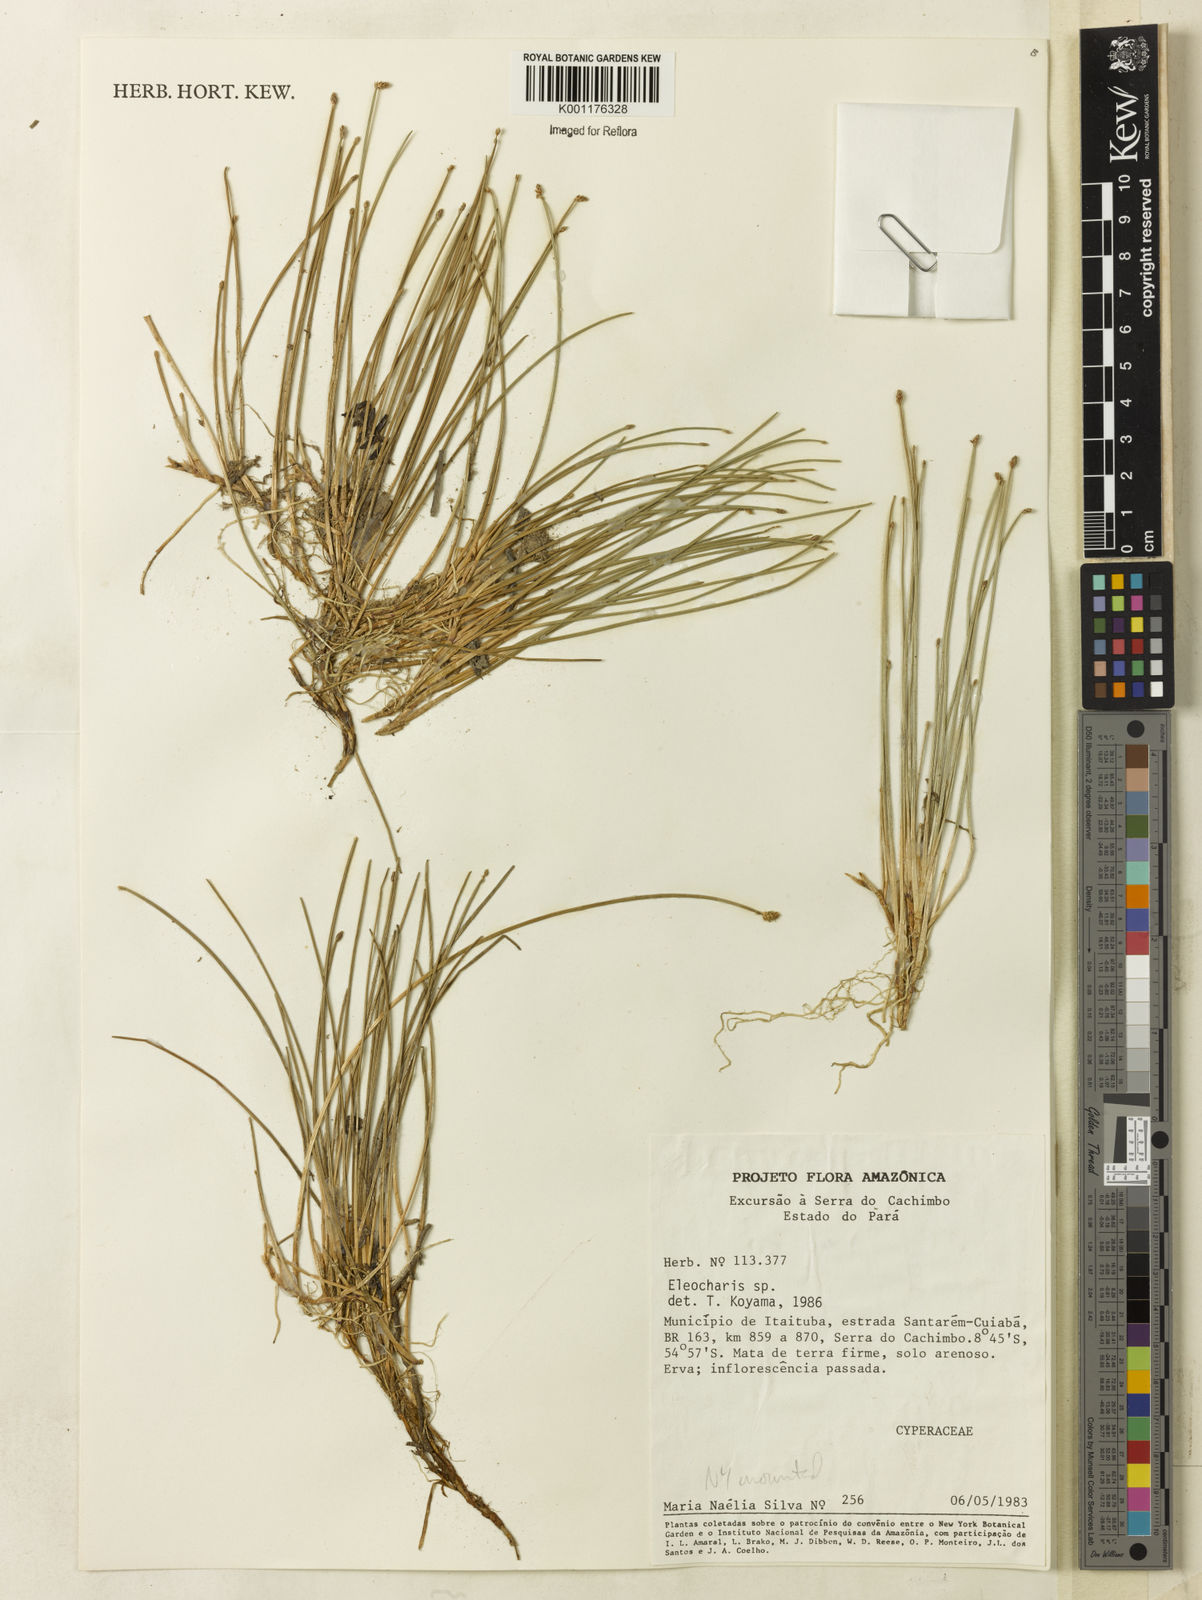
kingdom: Plantae
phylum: Tracheophyta
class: Liliopsida
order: Poales
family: Cyperaceae
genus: Eleocharis
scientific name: Eleocharis
